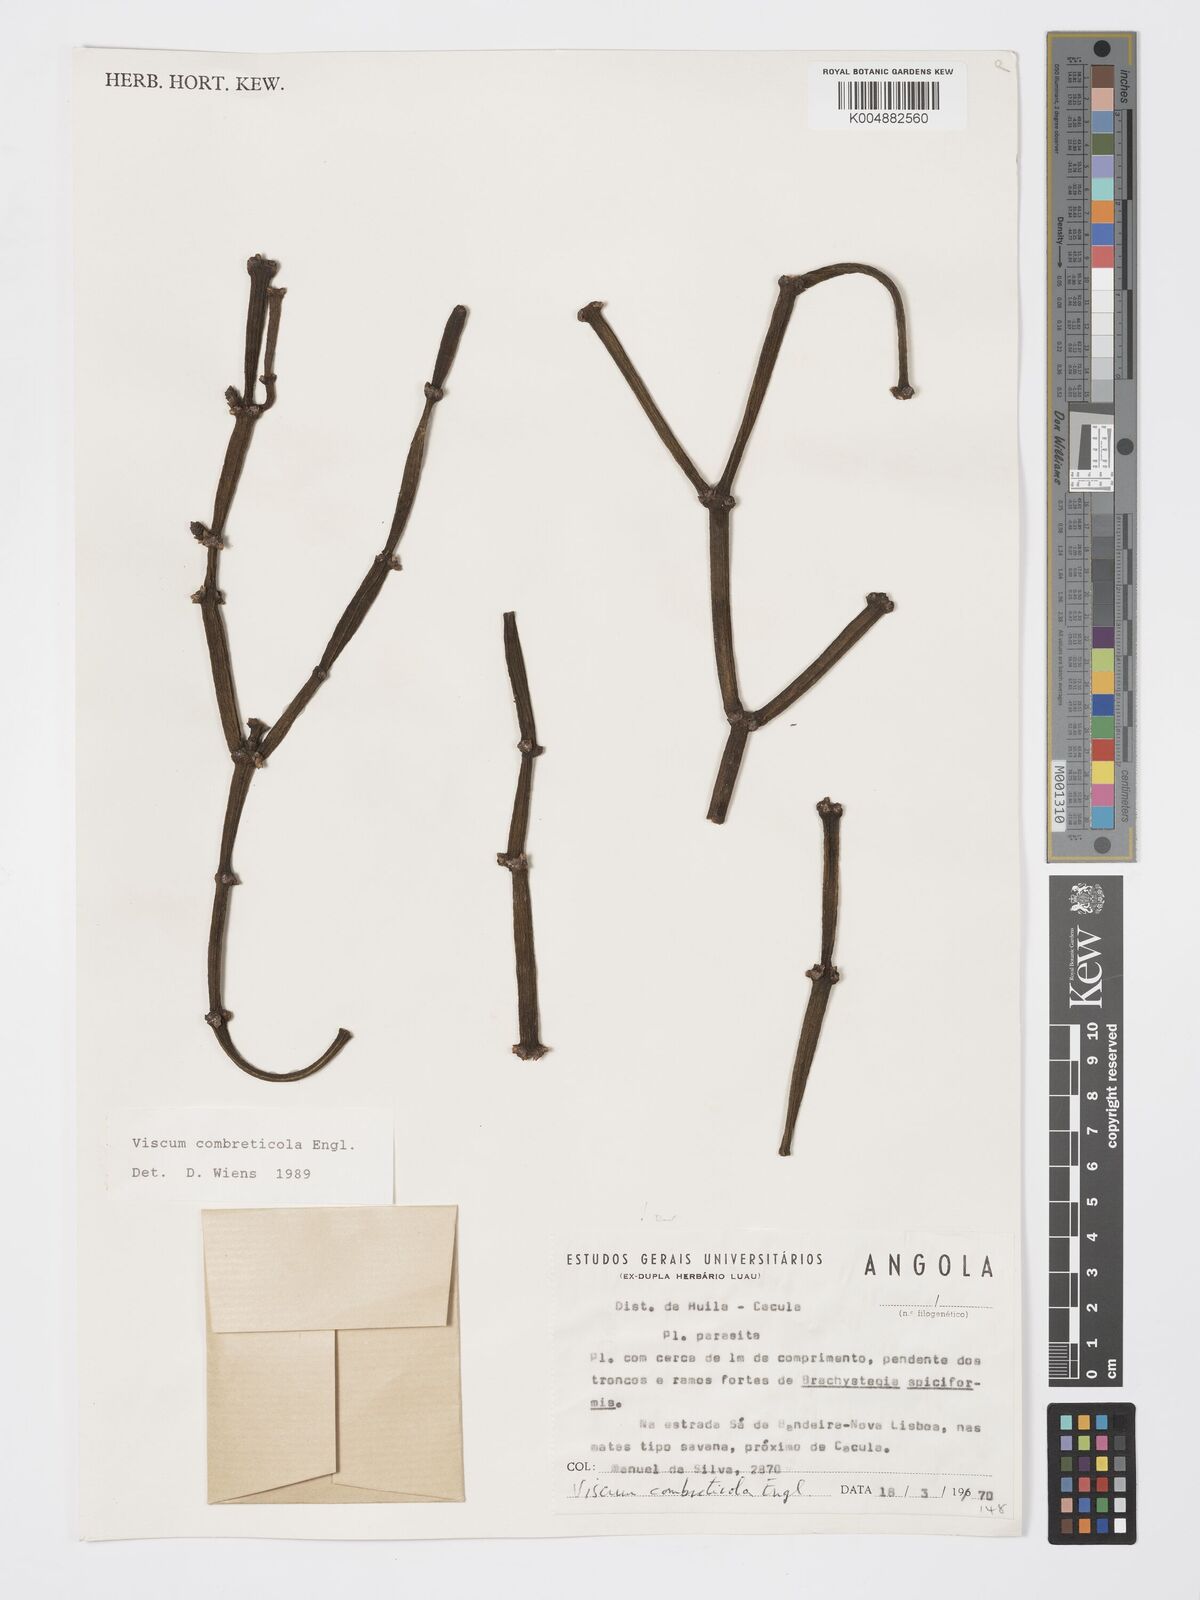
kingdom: Plantae
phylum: Tracheophyta
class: Magnoliopsida
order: Santalales
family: Viscaceae
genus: Viscum
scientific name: Viscum combreticola
